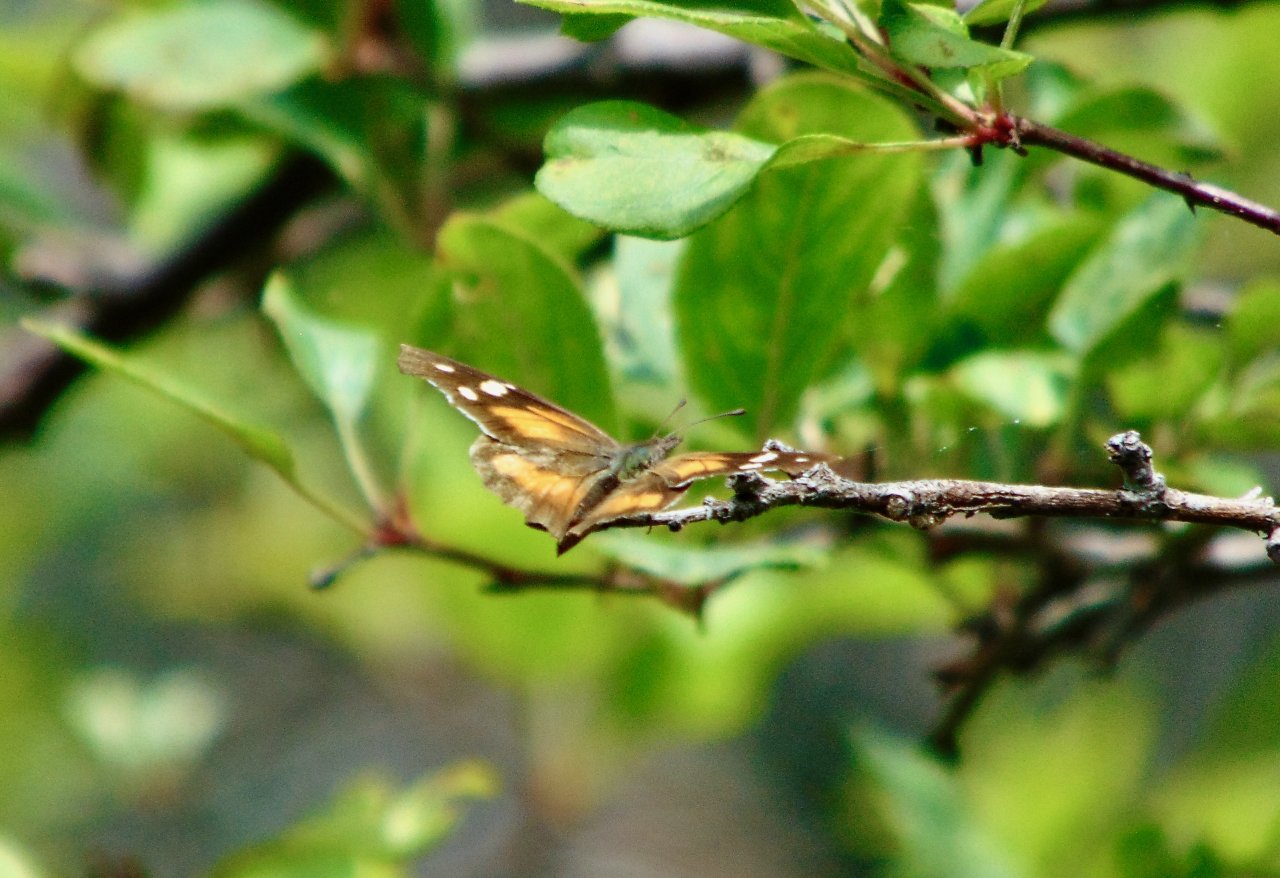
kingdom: Animalia
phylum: Arthropoda
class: Insecta
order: Lepidoptera
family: Nymphalidae
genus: Libytheana
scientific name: Libytheana carinenta
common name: American Snout
